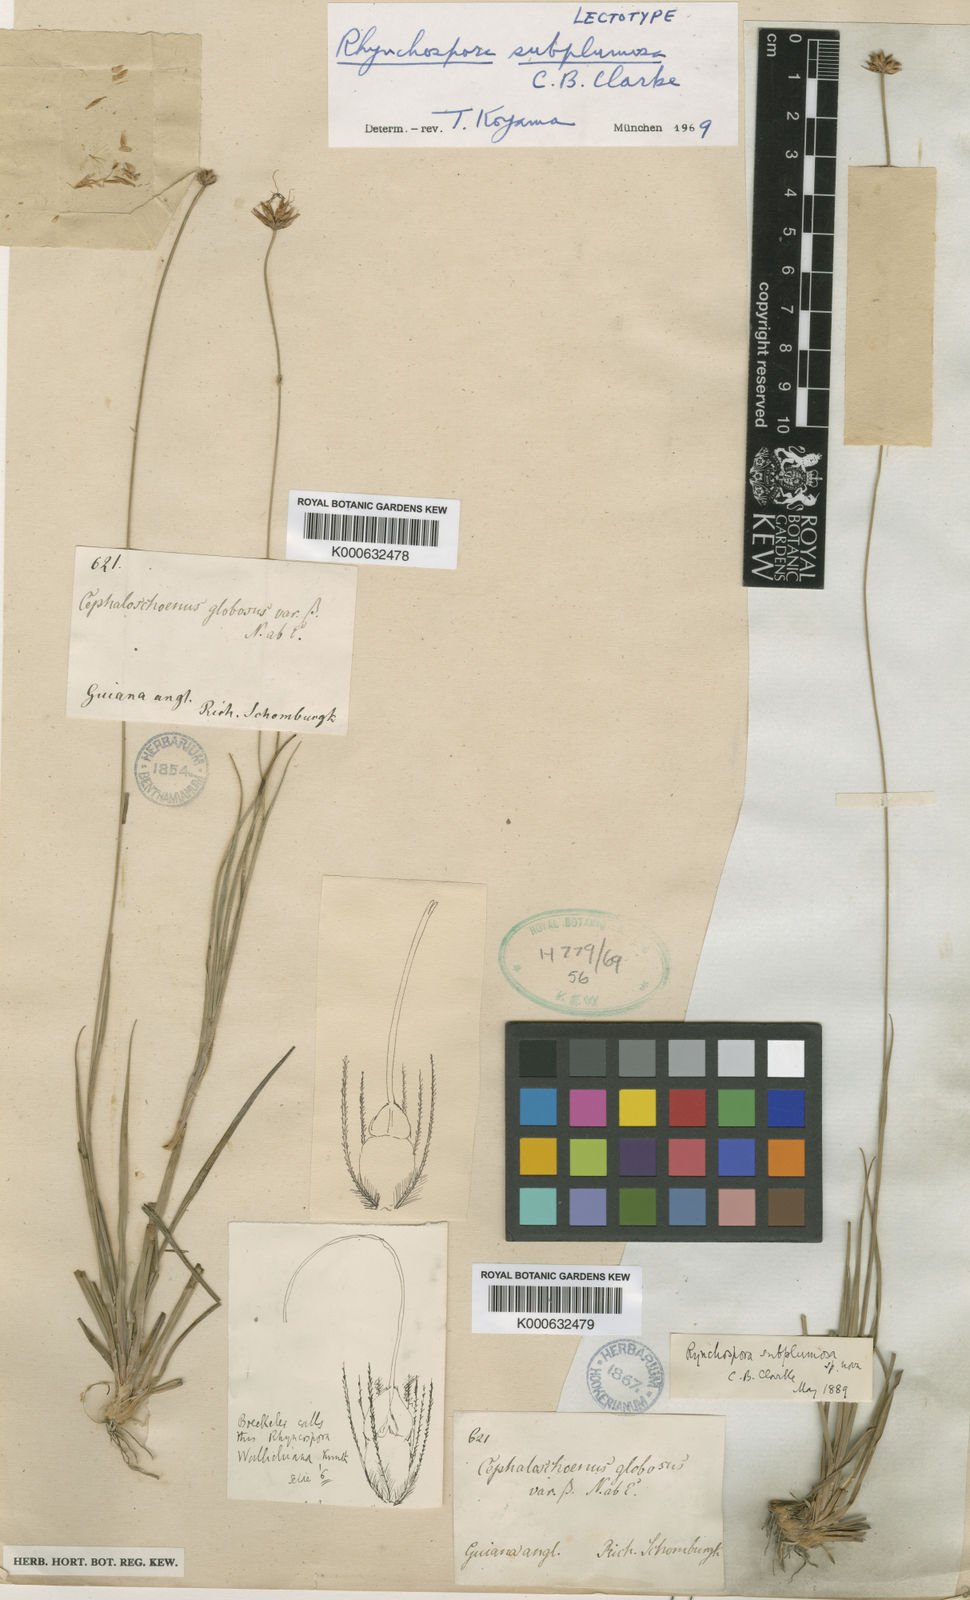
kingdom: Plantae
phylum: Tracheophyta
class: Liliopsida
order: Poales
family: Cyperaceae
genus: Rhynchospora
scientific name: Rhynchospora subplumosa
